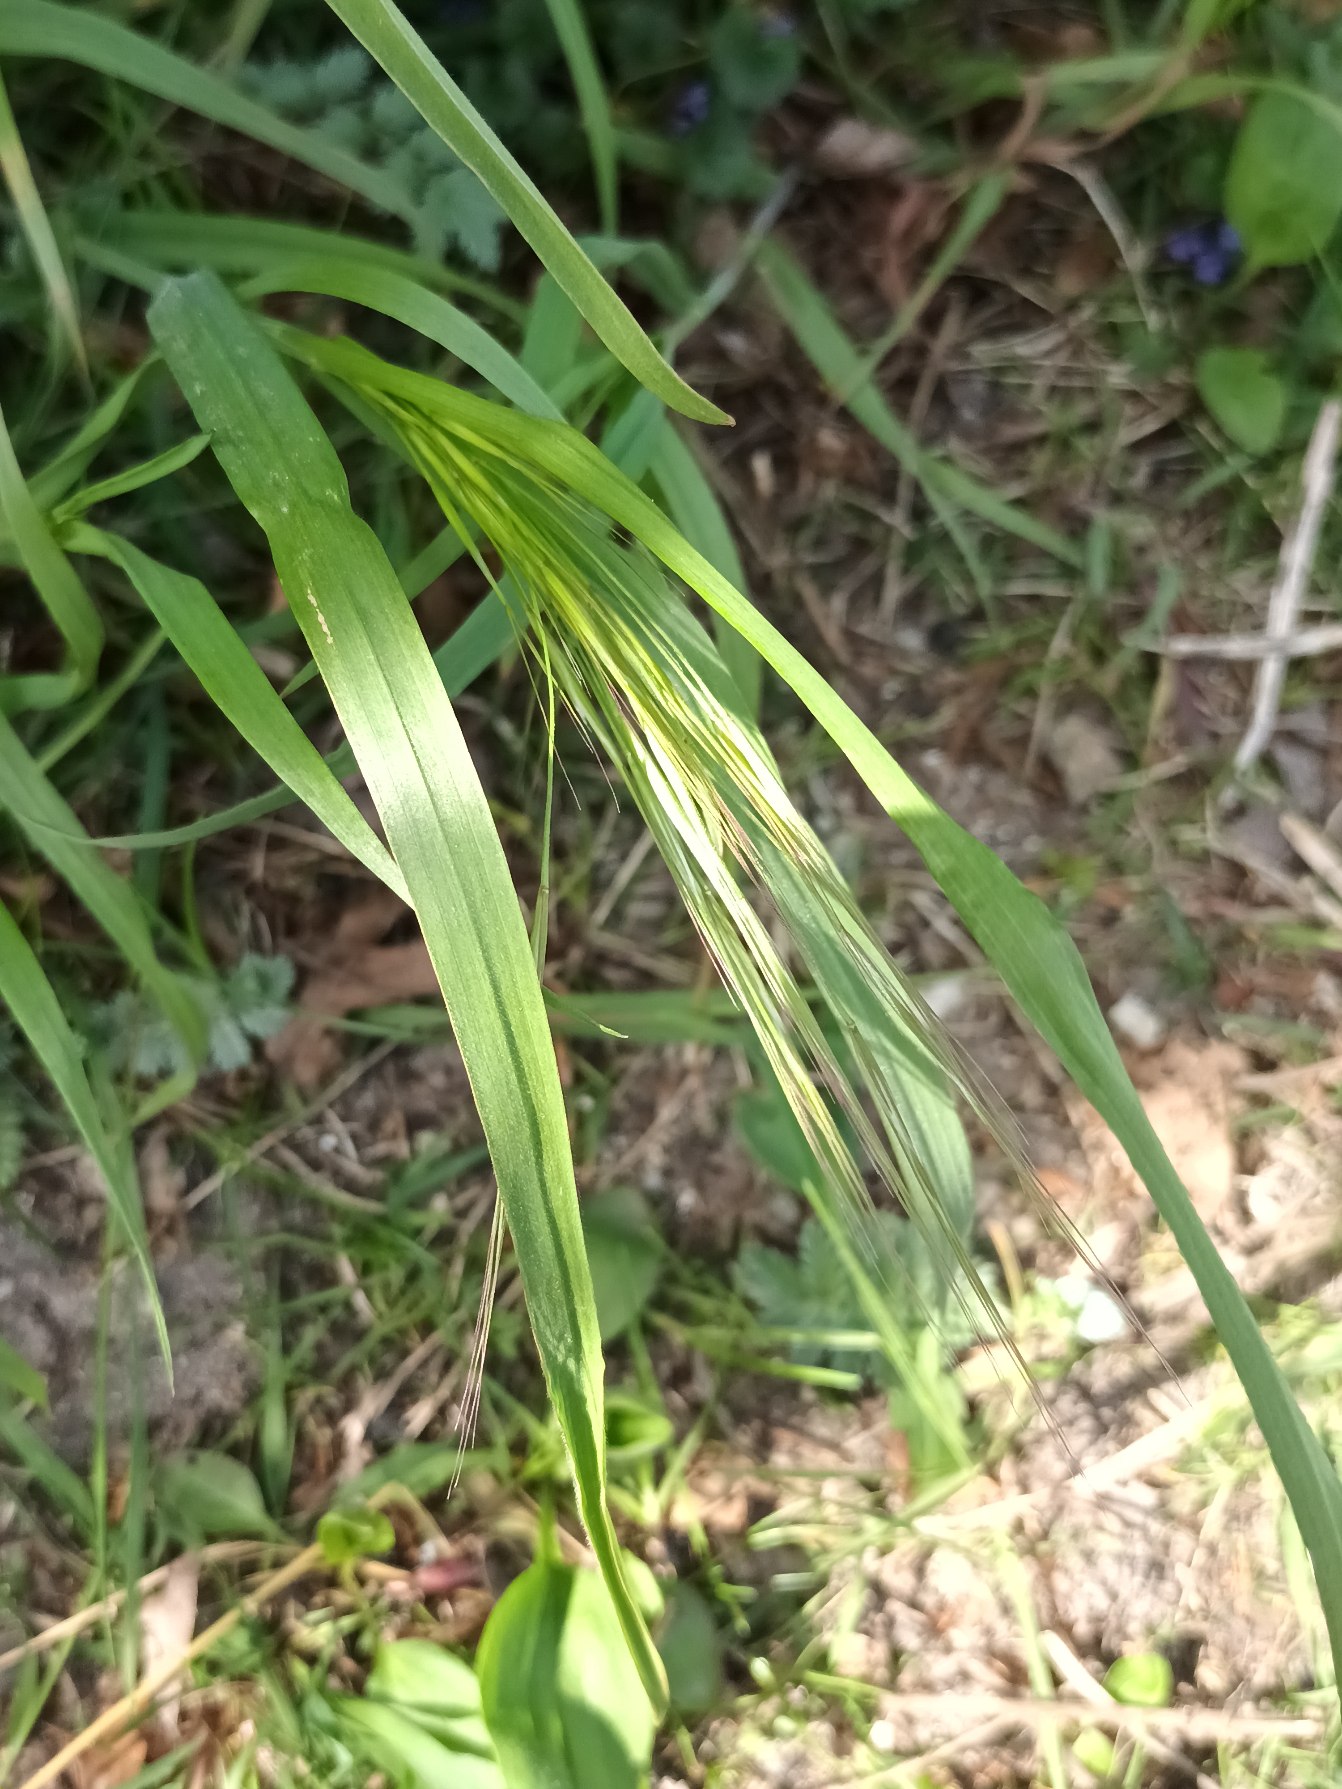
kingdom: Plantae
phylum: Tracheophyta
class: Liliopsida
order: Poales
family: Poaceae
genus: Bromus
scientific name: Bromus sterilis
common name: Gold hejre
